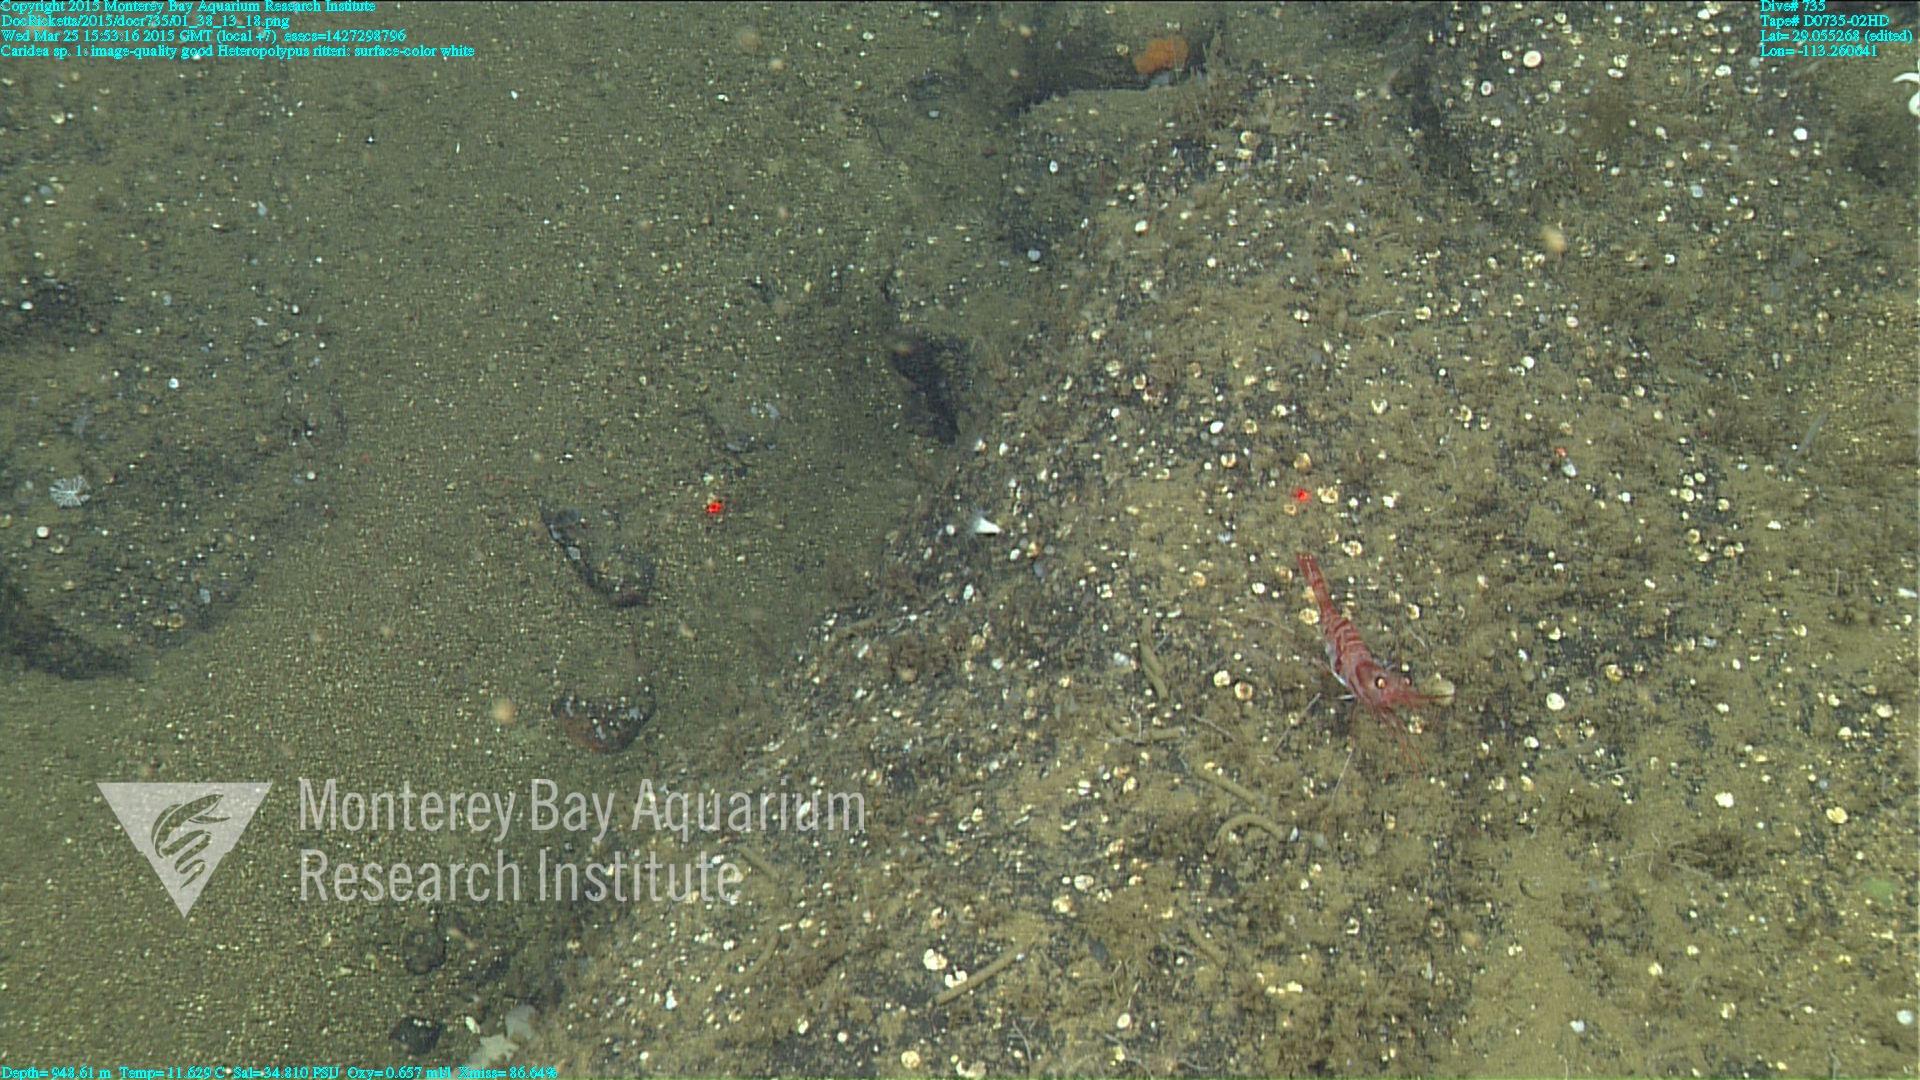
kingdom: Animalia
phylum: Cnidaria
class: Anthozoa
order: Scleralcyonacea
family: Coralliidae
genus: Heteropolypus
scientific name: Heteropolypus ritteri
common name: Ritter's soft coral
